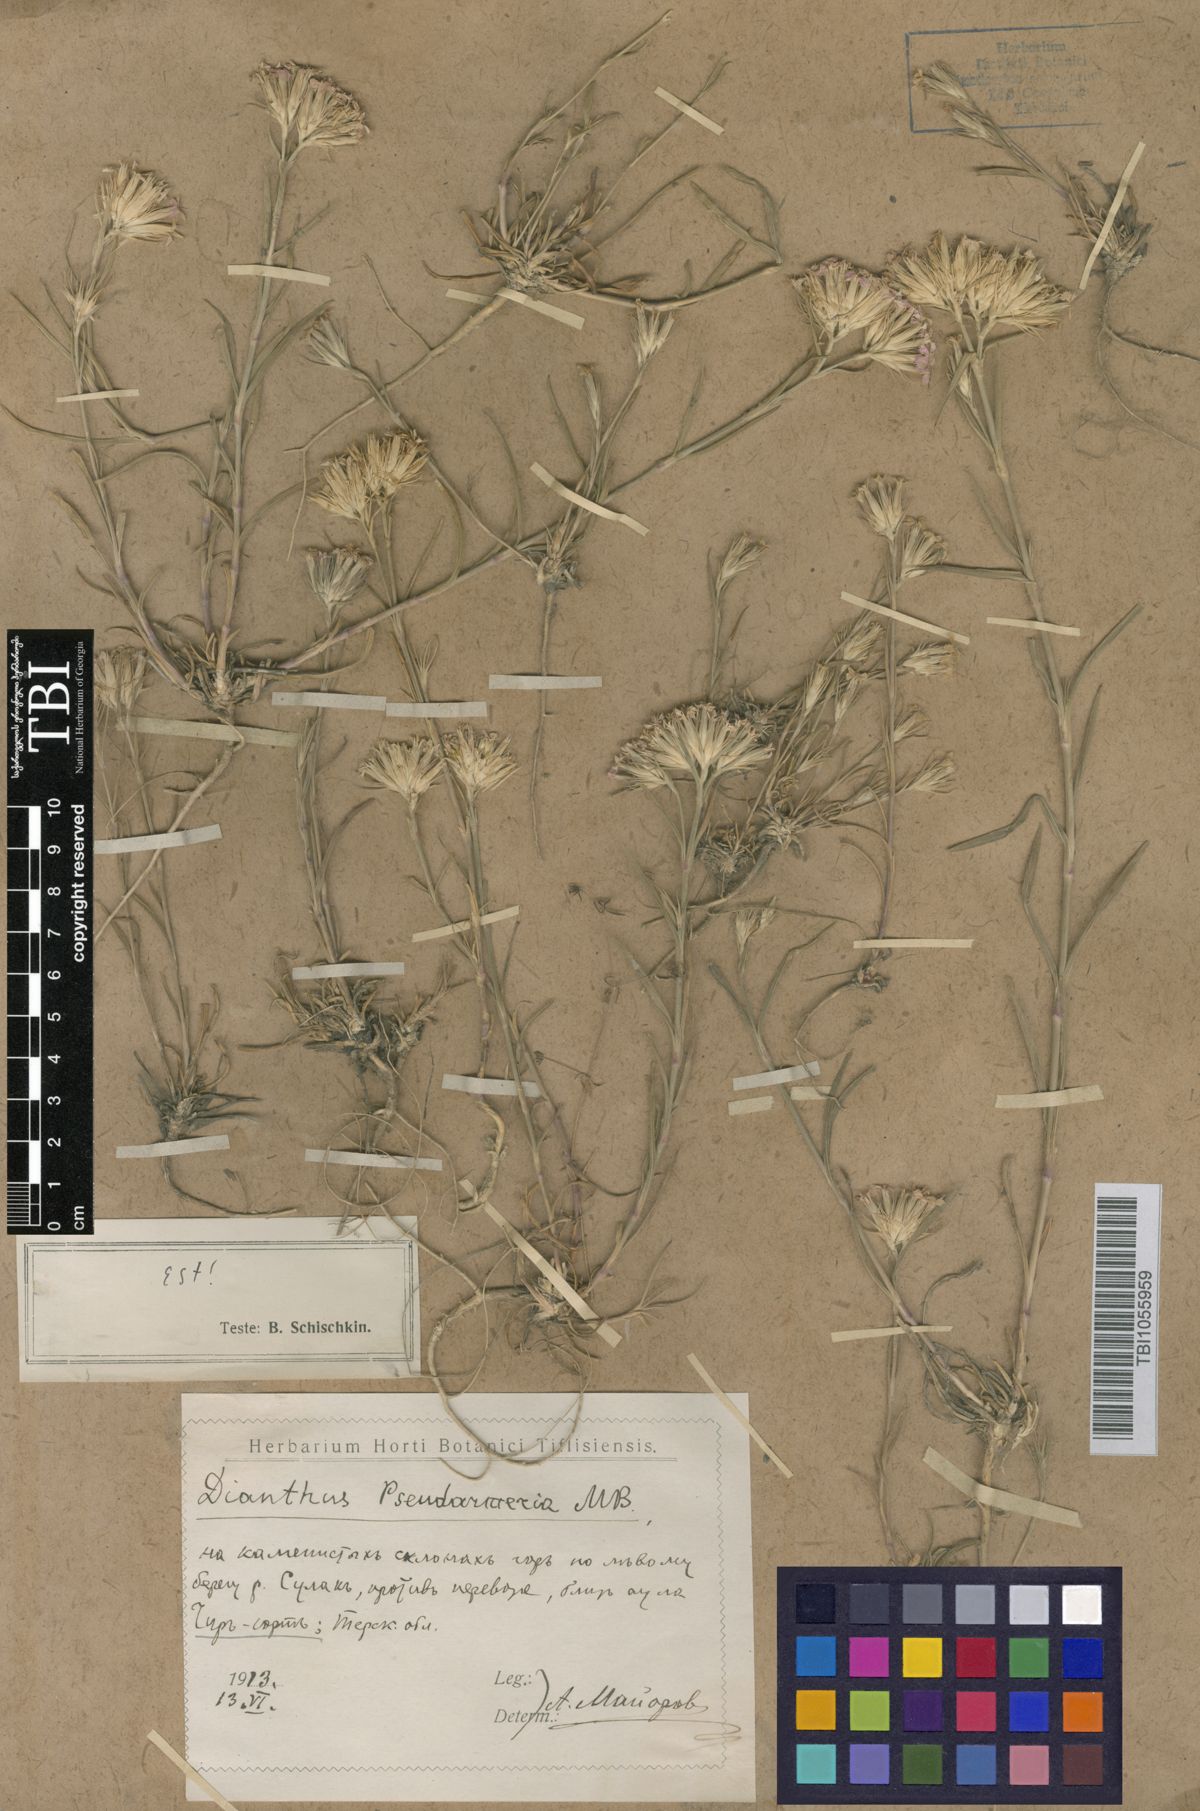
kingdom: Plantae
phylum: Tracheophyta
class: Magnoliopsida
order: Caryophyllales
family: Caryophyllaceae
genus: Dianthus
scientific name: Dianthus pseudarmeria
